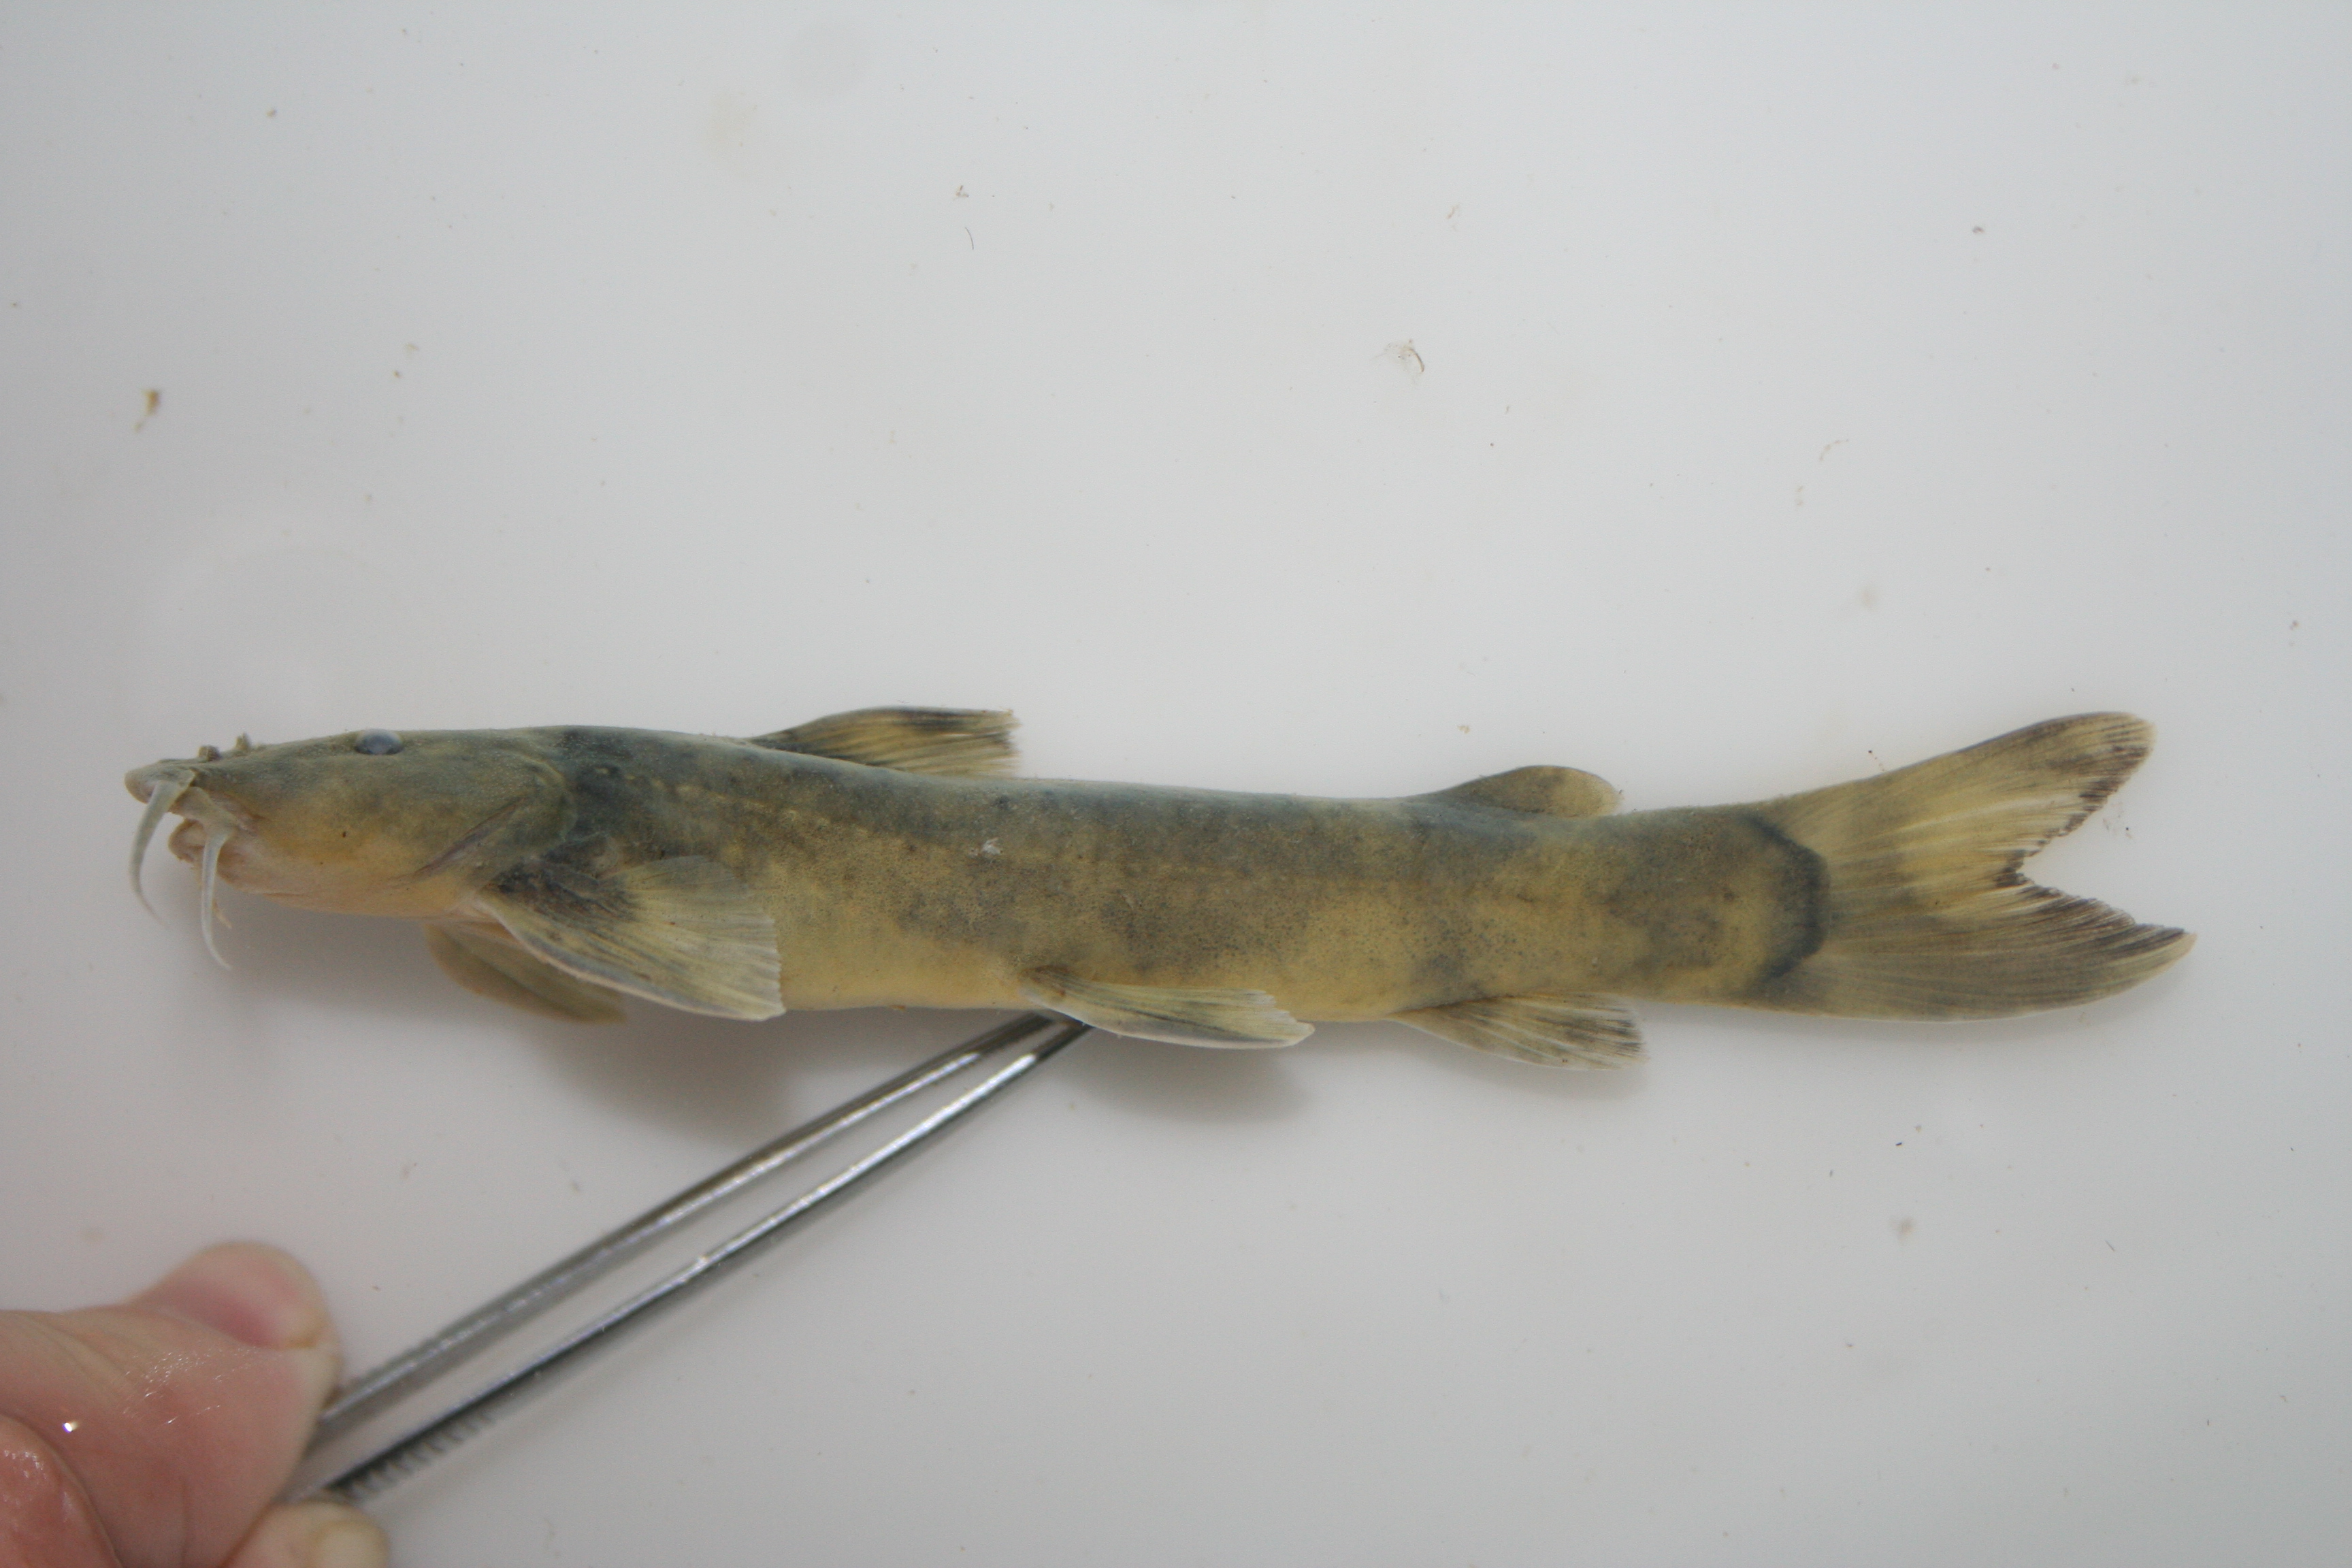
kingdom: Animalia
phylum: Chordata
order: Siluriformes
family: Amphiliidae
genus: Amphilius
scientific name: Amphilius pagei
